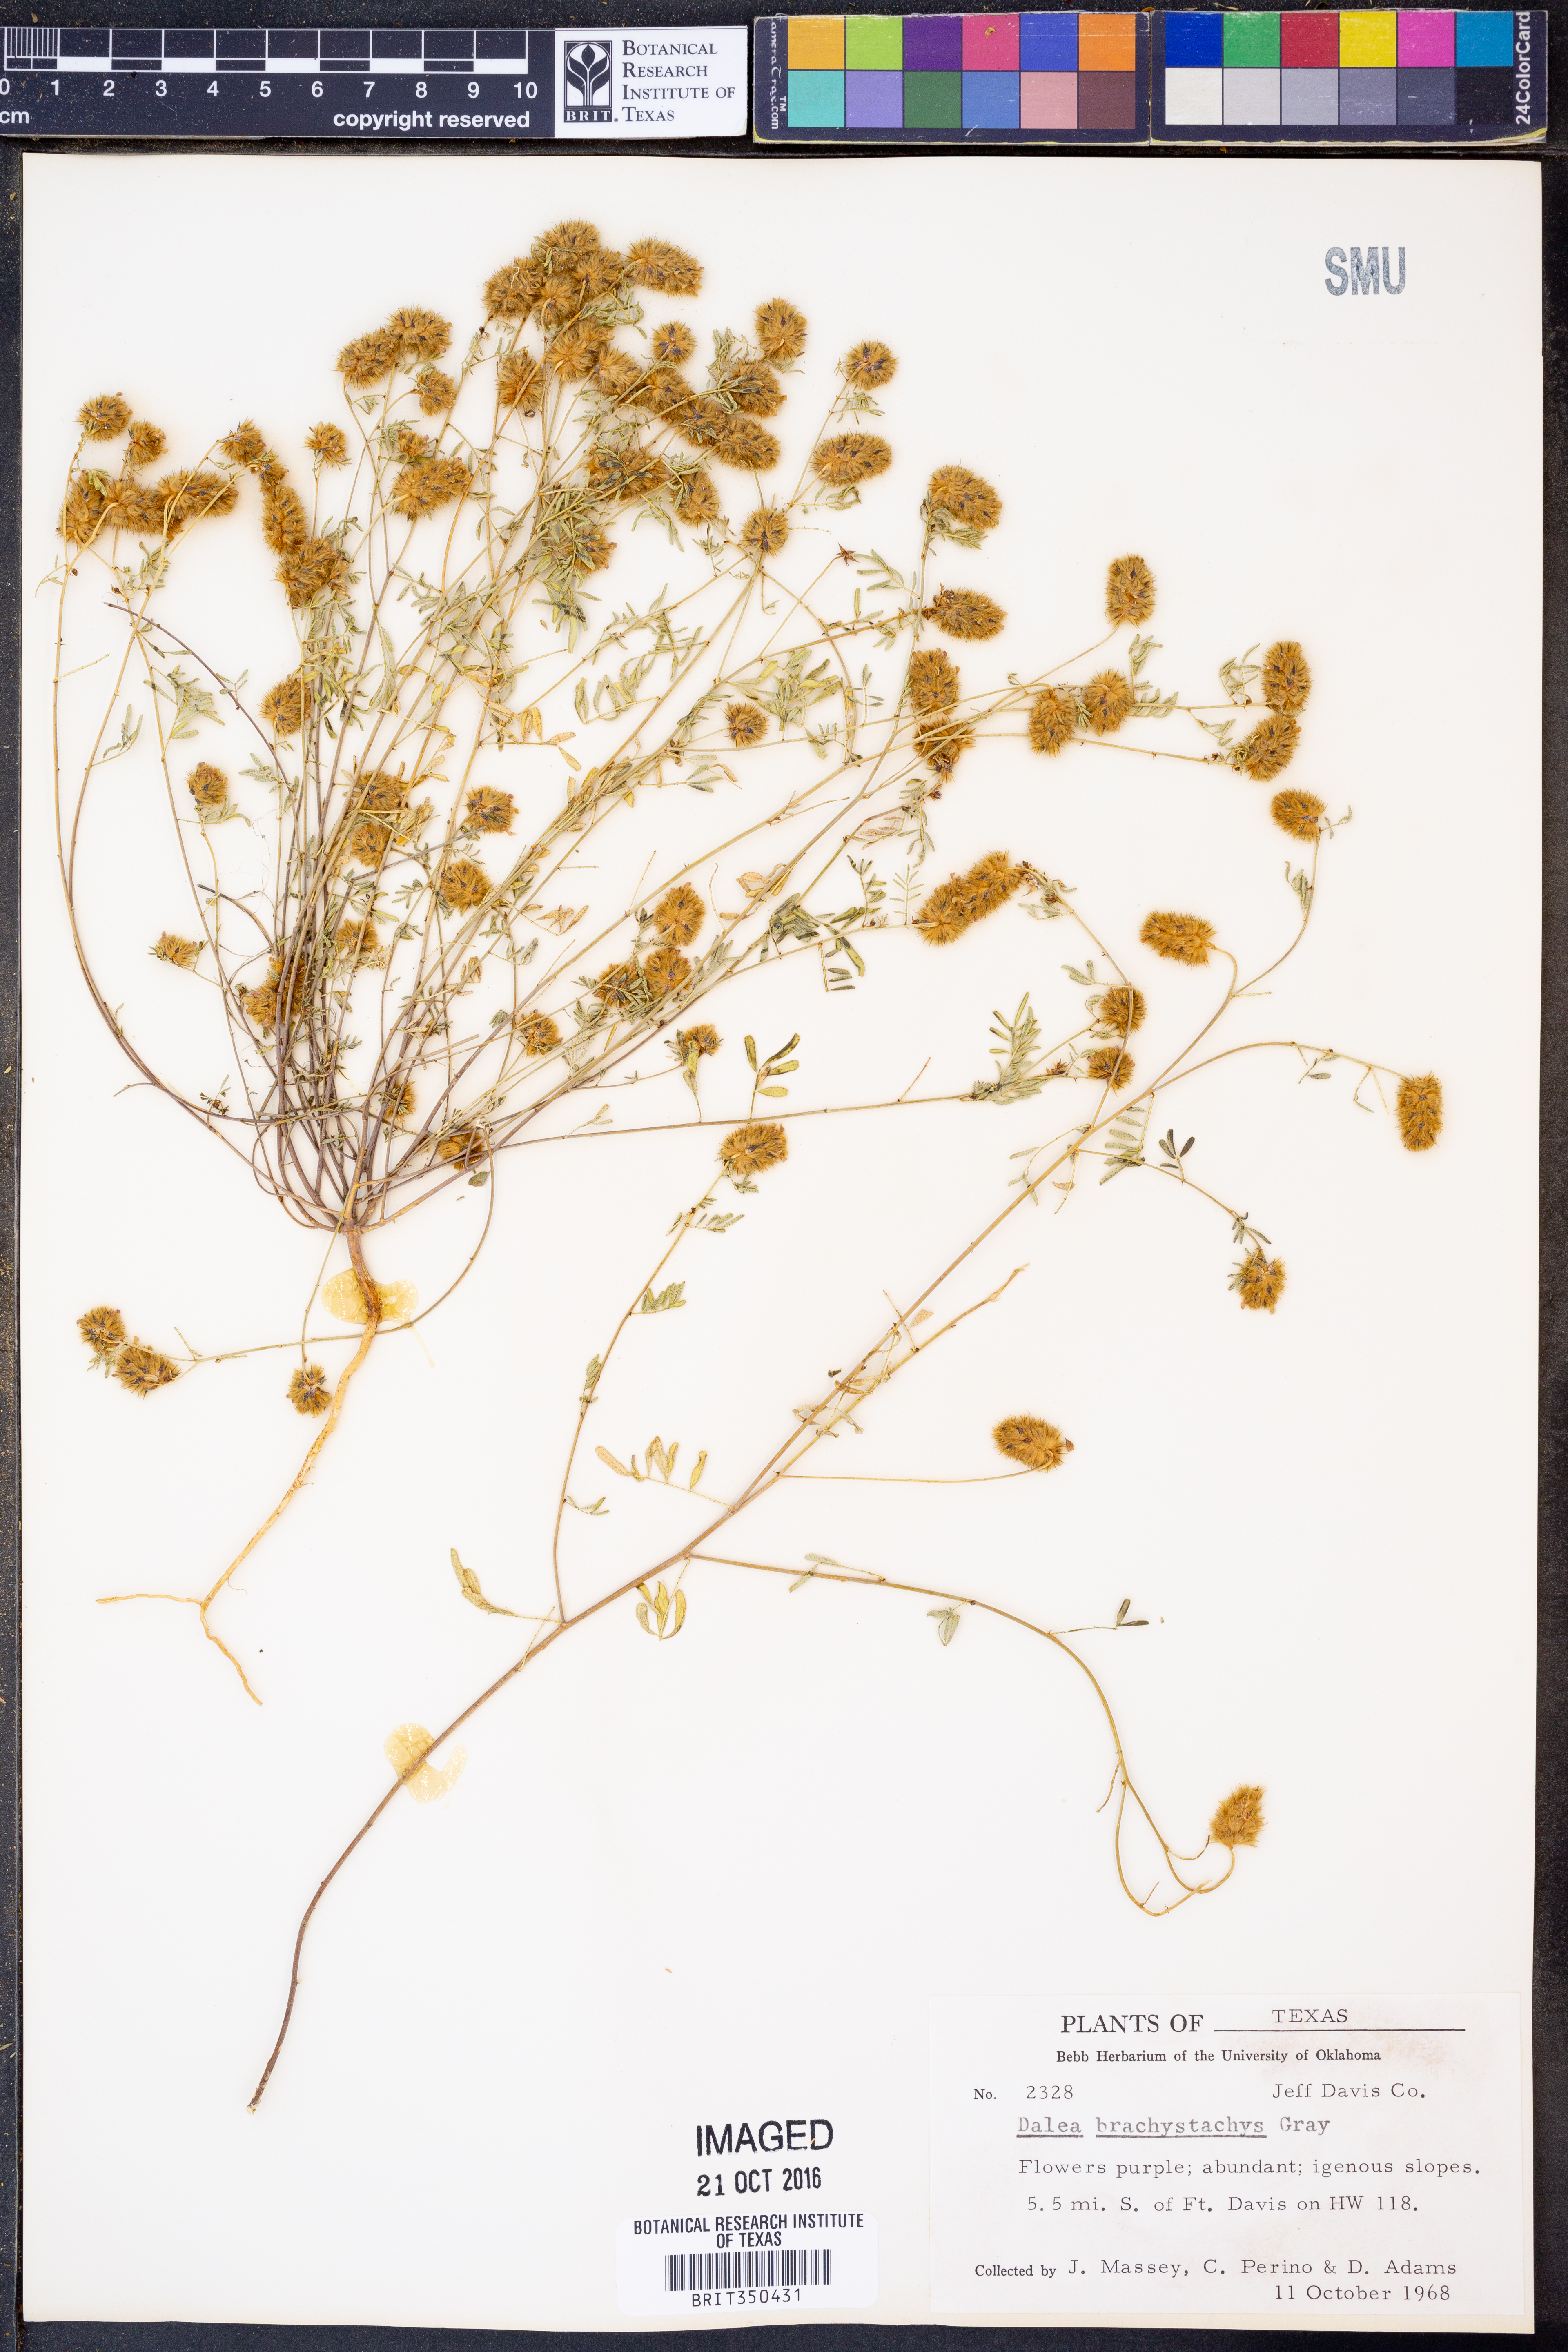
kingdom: Plantae
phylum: Tracheophyta
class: Magnoliopsida
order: Fabales
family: Fabaceae
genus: Dalea
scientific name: Dalea brachystachys
